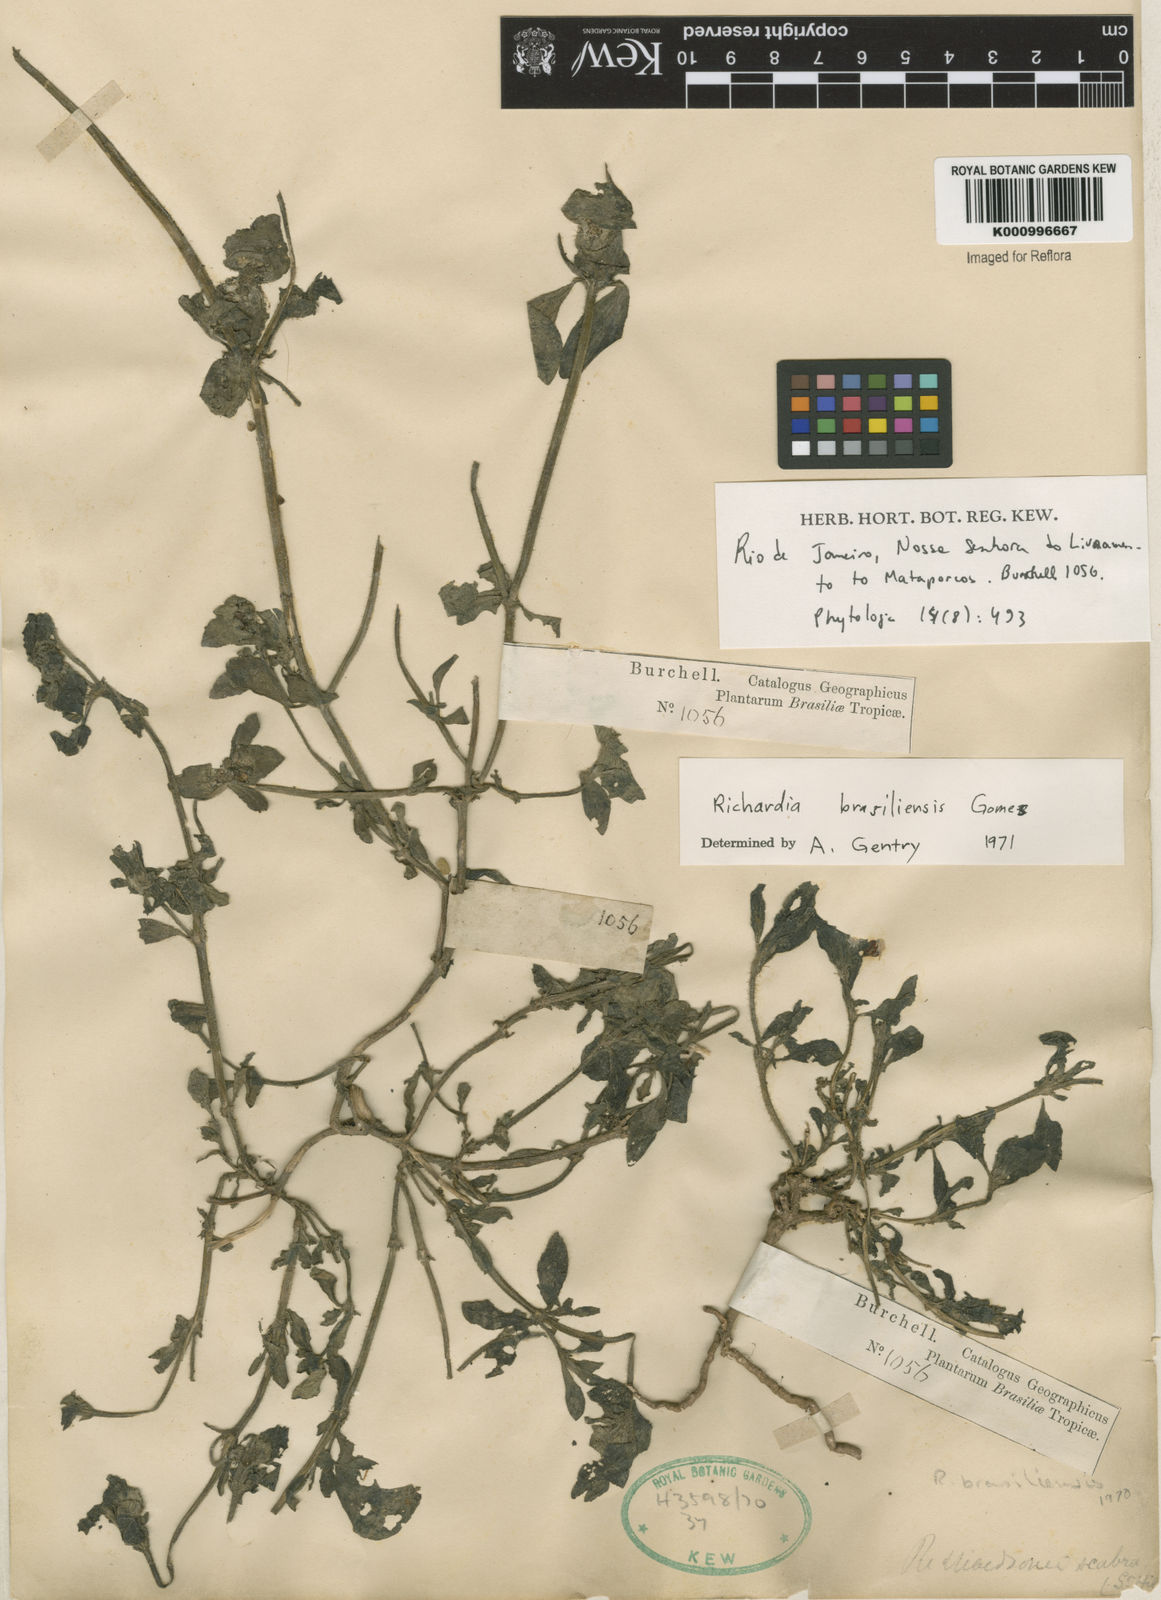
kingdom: Plantae
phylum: Tracheophyta
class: Magnoliopsida
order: Gentianales
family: Rubiaceae
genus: Richardia
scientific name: Richardia brasiliensis
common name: Tropical mexican clover
